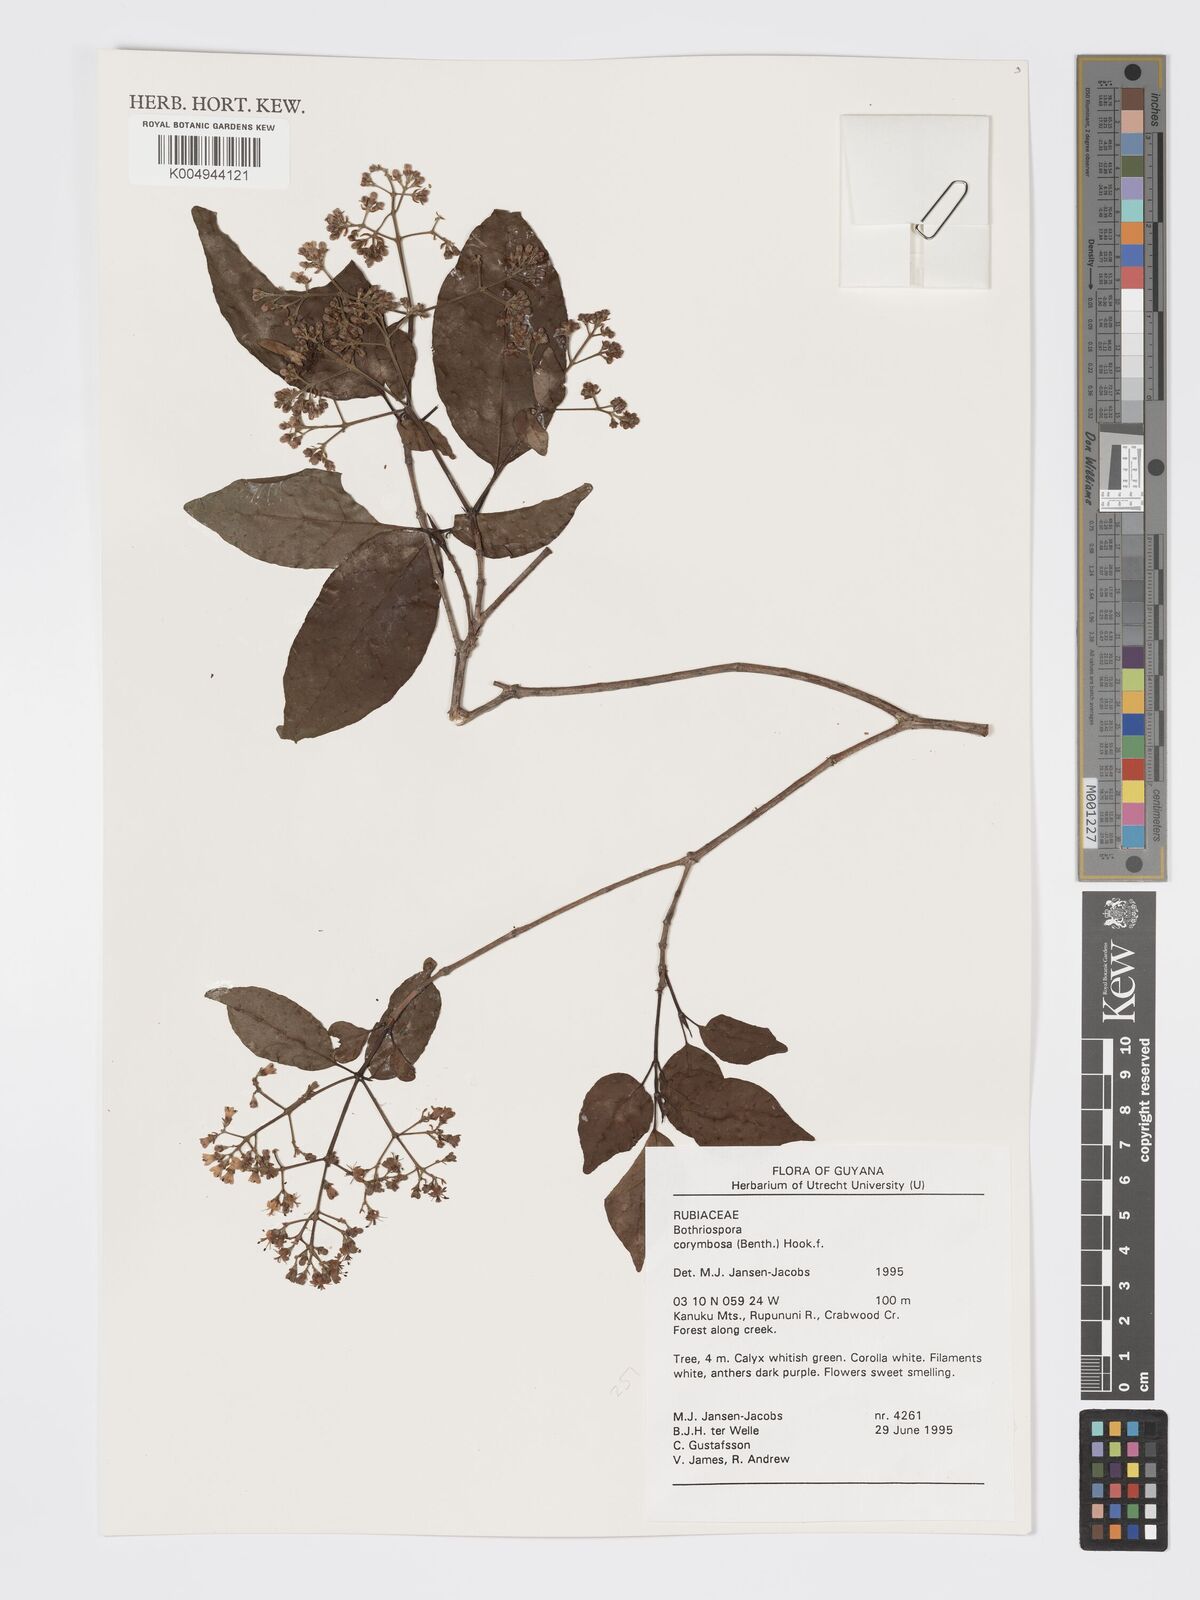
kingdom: Plantae
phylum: Tracheophyta
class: Magnoliopsida
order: Gentianales
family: Rubiaceae
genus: Bothriospora
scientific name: Bothriospora corymbosa
